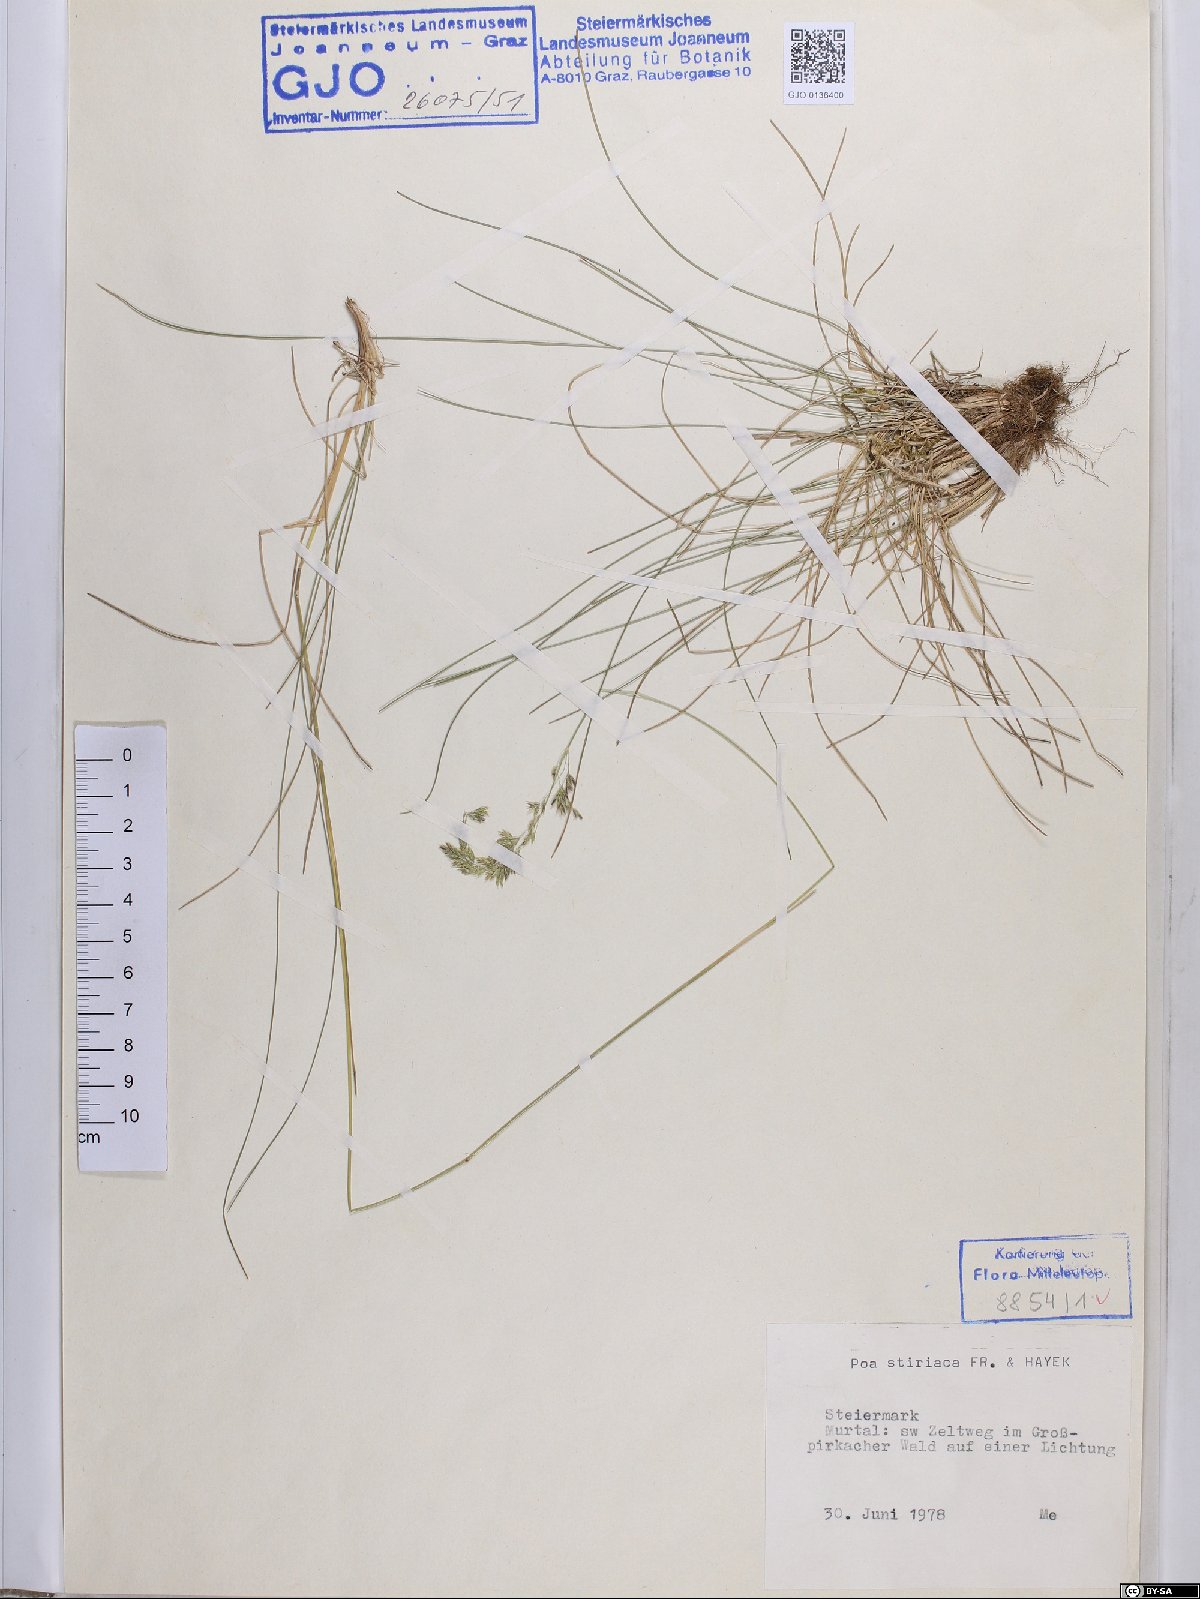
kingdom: Plantae
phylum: Tracheophyta
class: Liliopsida
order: Poales
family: Poaceae
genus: Poa
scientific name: Poa stiriaca
